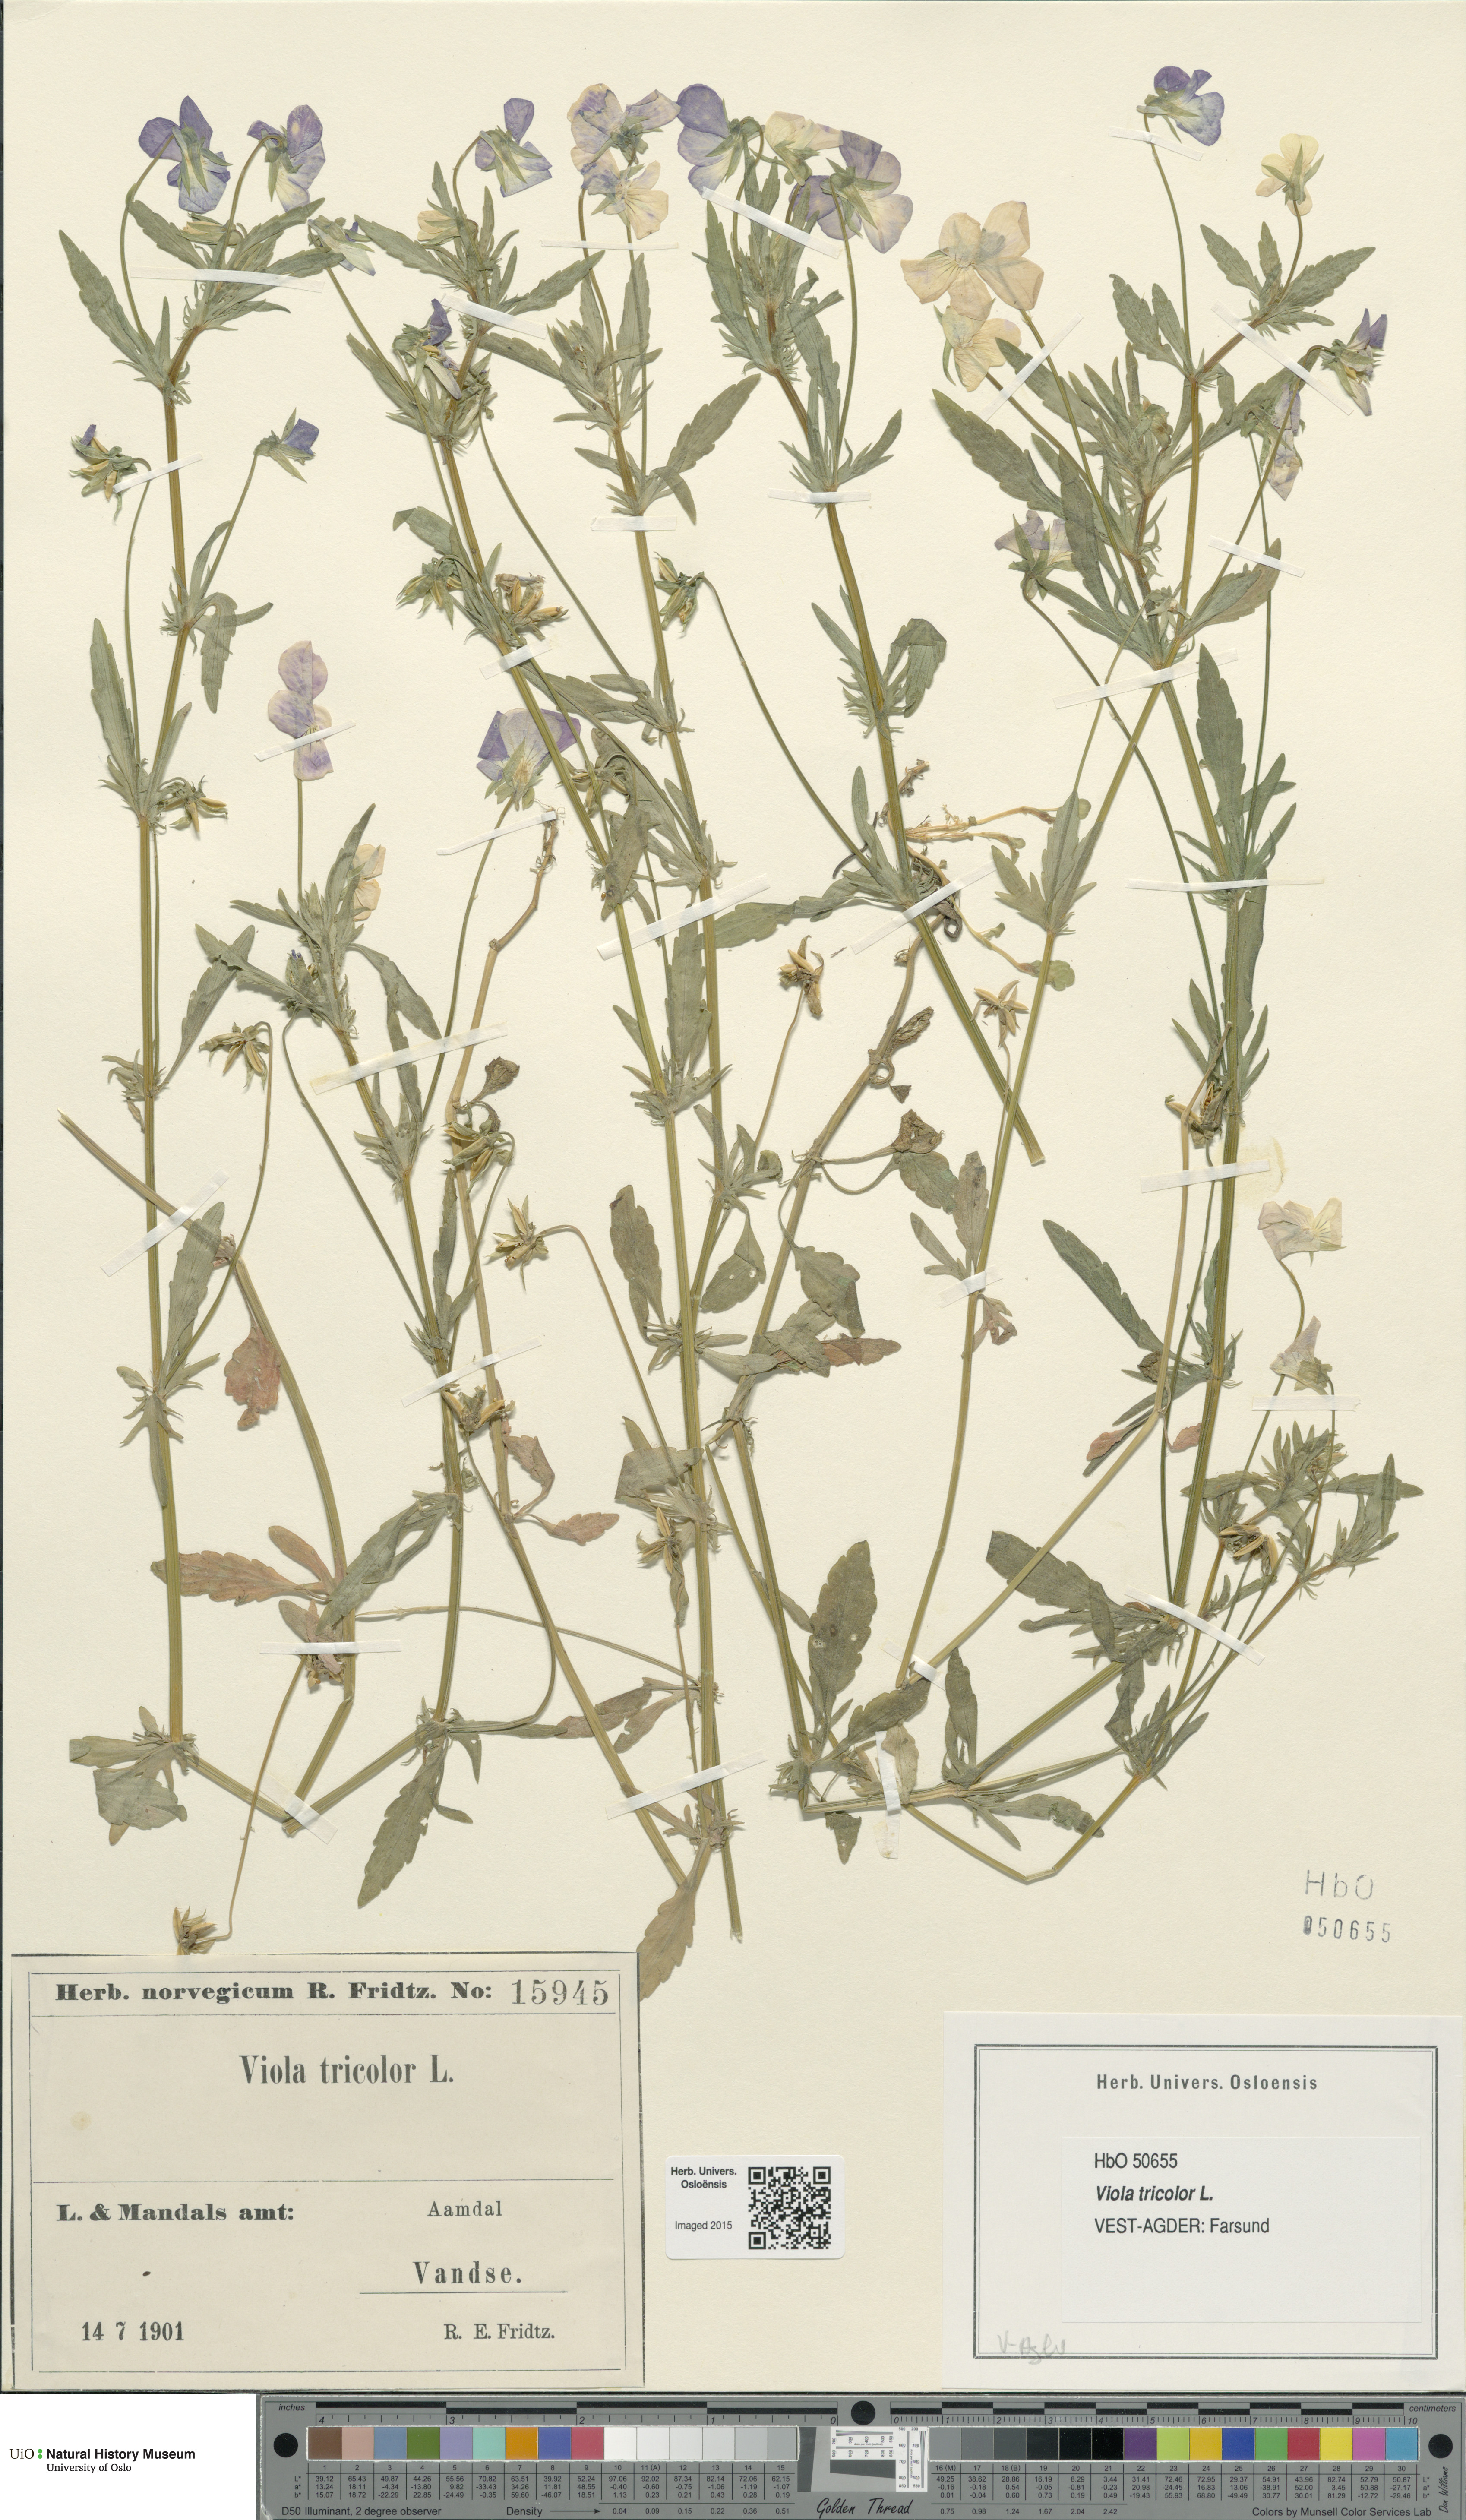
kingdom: Plantae
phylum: Tracheophyta
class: Magnoliopsida
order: Malpighiales
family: Violaceae
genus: Viola
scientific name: Viola tricolor
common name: Pansy
